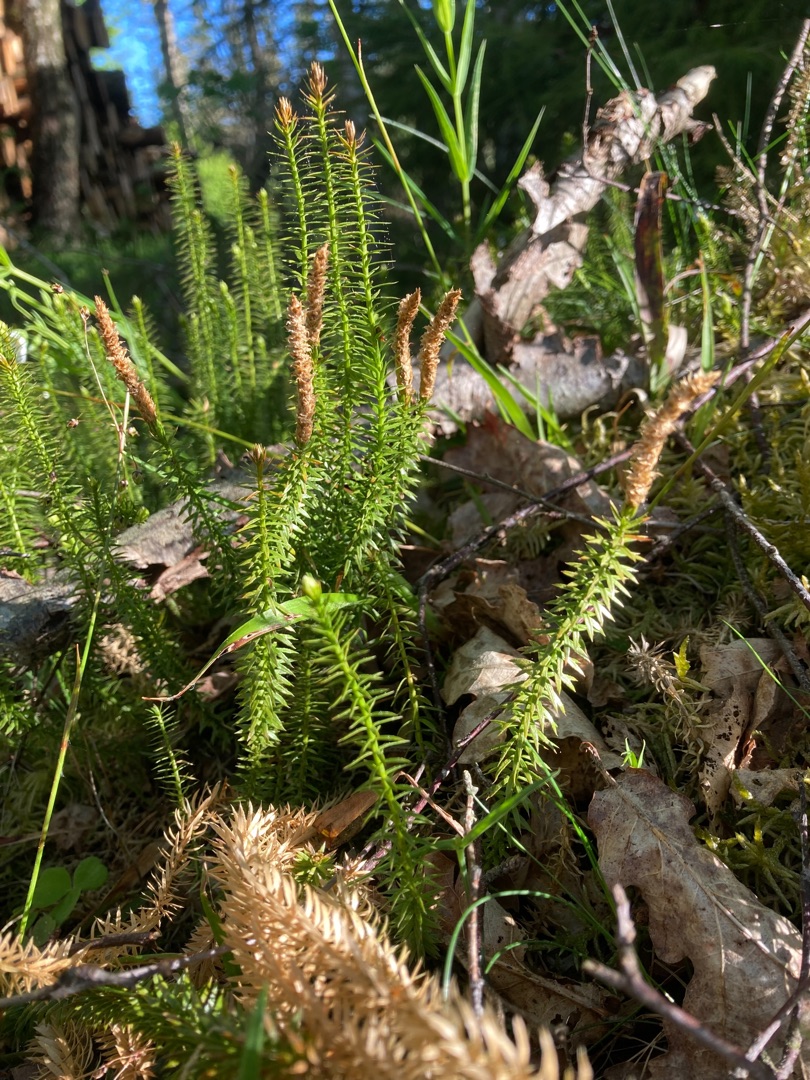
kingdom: Plantae
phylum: Tracheophyta
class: Lycopodiopsida
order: Lycopodiales
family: Lycopodiaceae
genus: Spinulum
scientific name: Spinulum annotinum
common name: Femradet ulvefod
